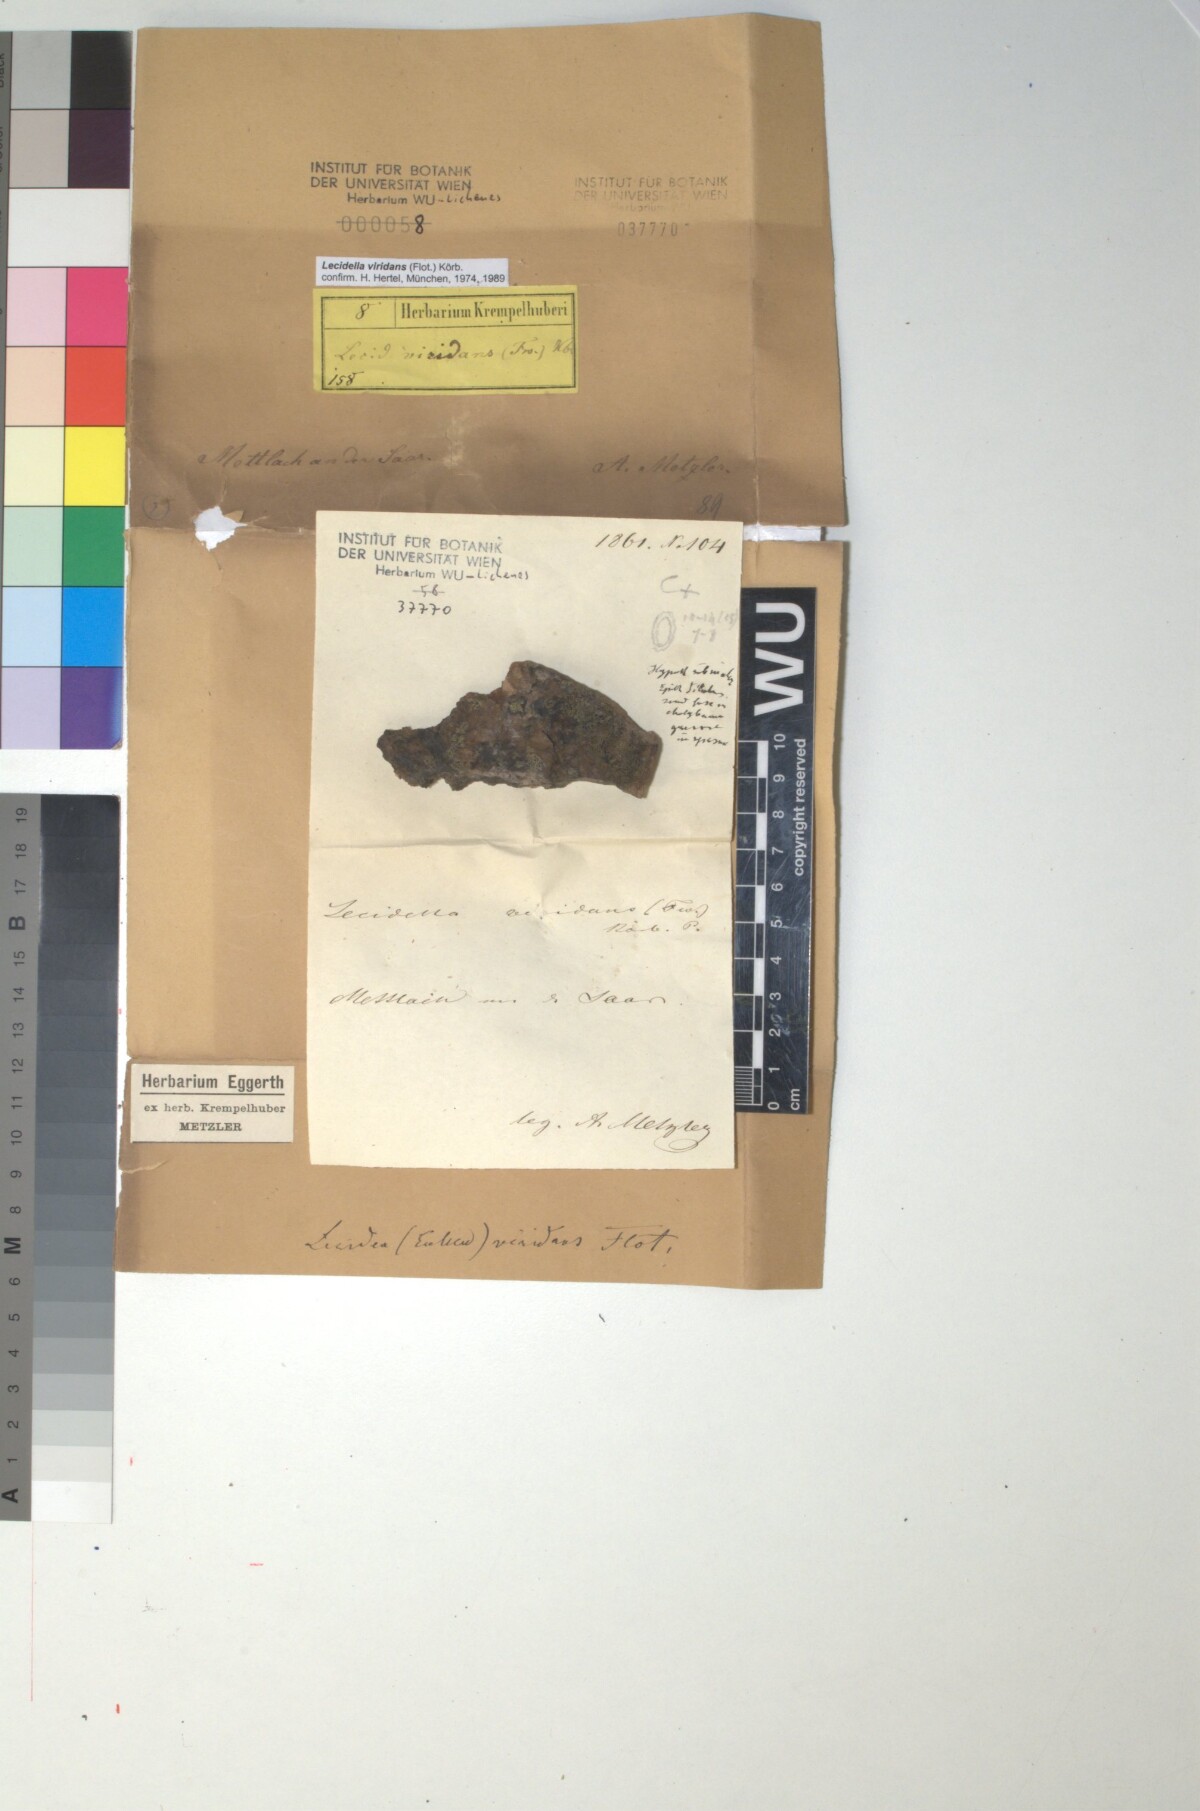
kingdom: Fungi
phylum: Ascomycota
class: Lecanoromycetes
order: Lecanorales
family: Lecanoraceae
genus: Lecidella
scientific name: Lecidella viridans
